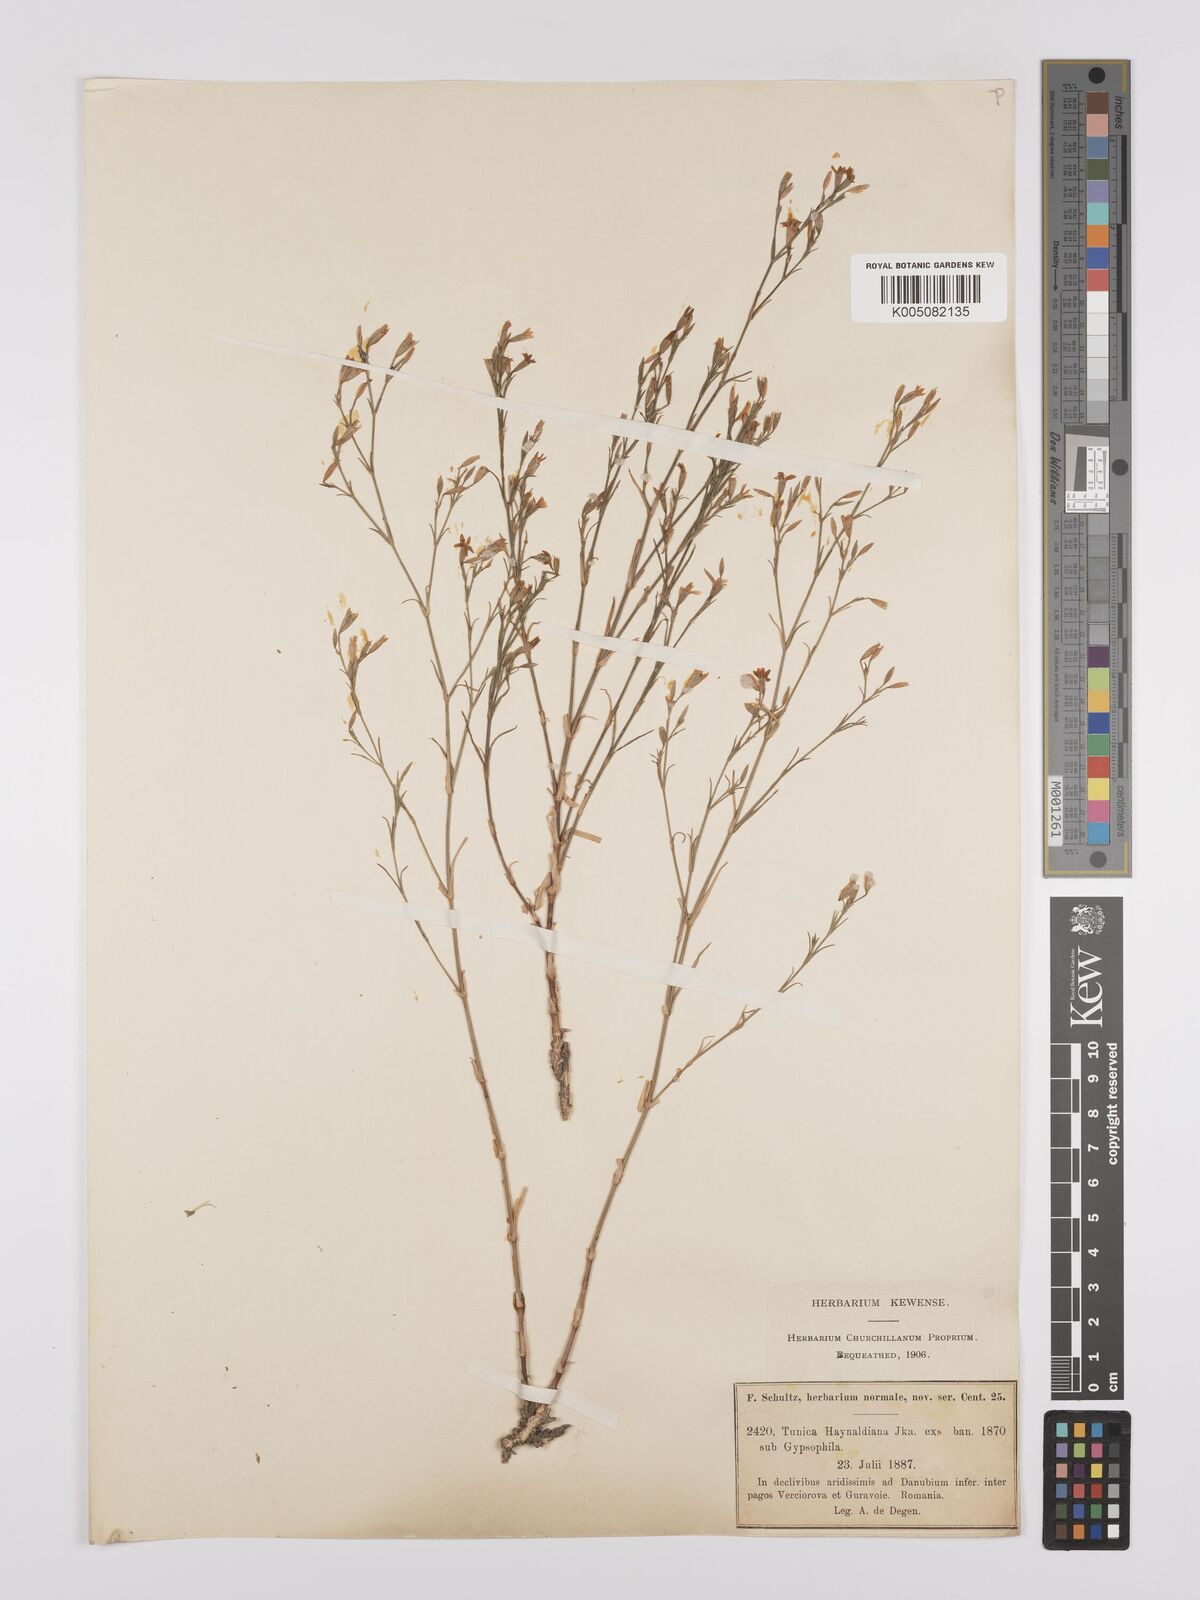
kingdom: Plantae
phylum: Tracheophyta
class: Magnoliopsida
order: Caryophyllales
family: Caryophyllaceae
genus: Dianthus
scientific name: Dianthus illyricus
